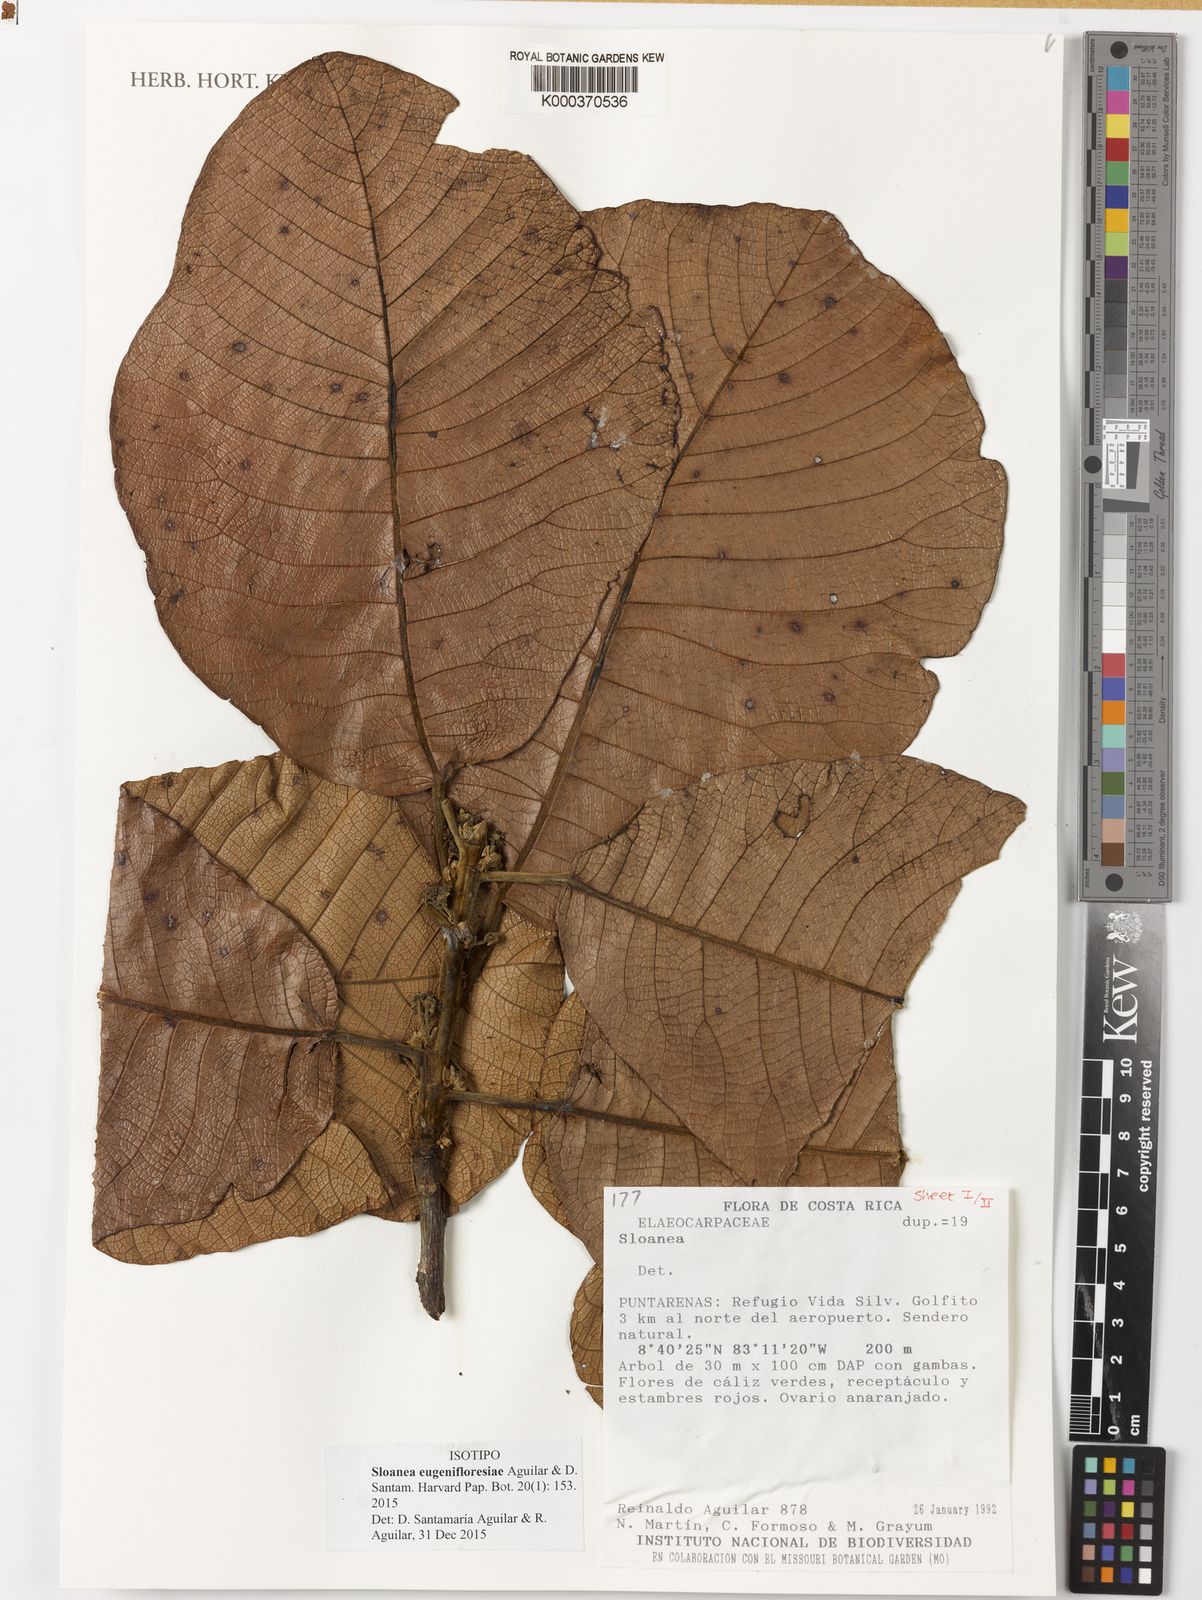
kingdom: Plantae
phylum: Tracheophyta
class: Magnoliopsida
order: Oxalidales
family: Elaeocarpaceae
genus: Sloanea
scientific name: Sloanea eugenifloresiae
